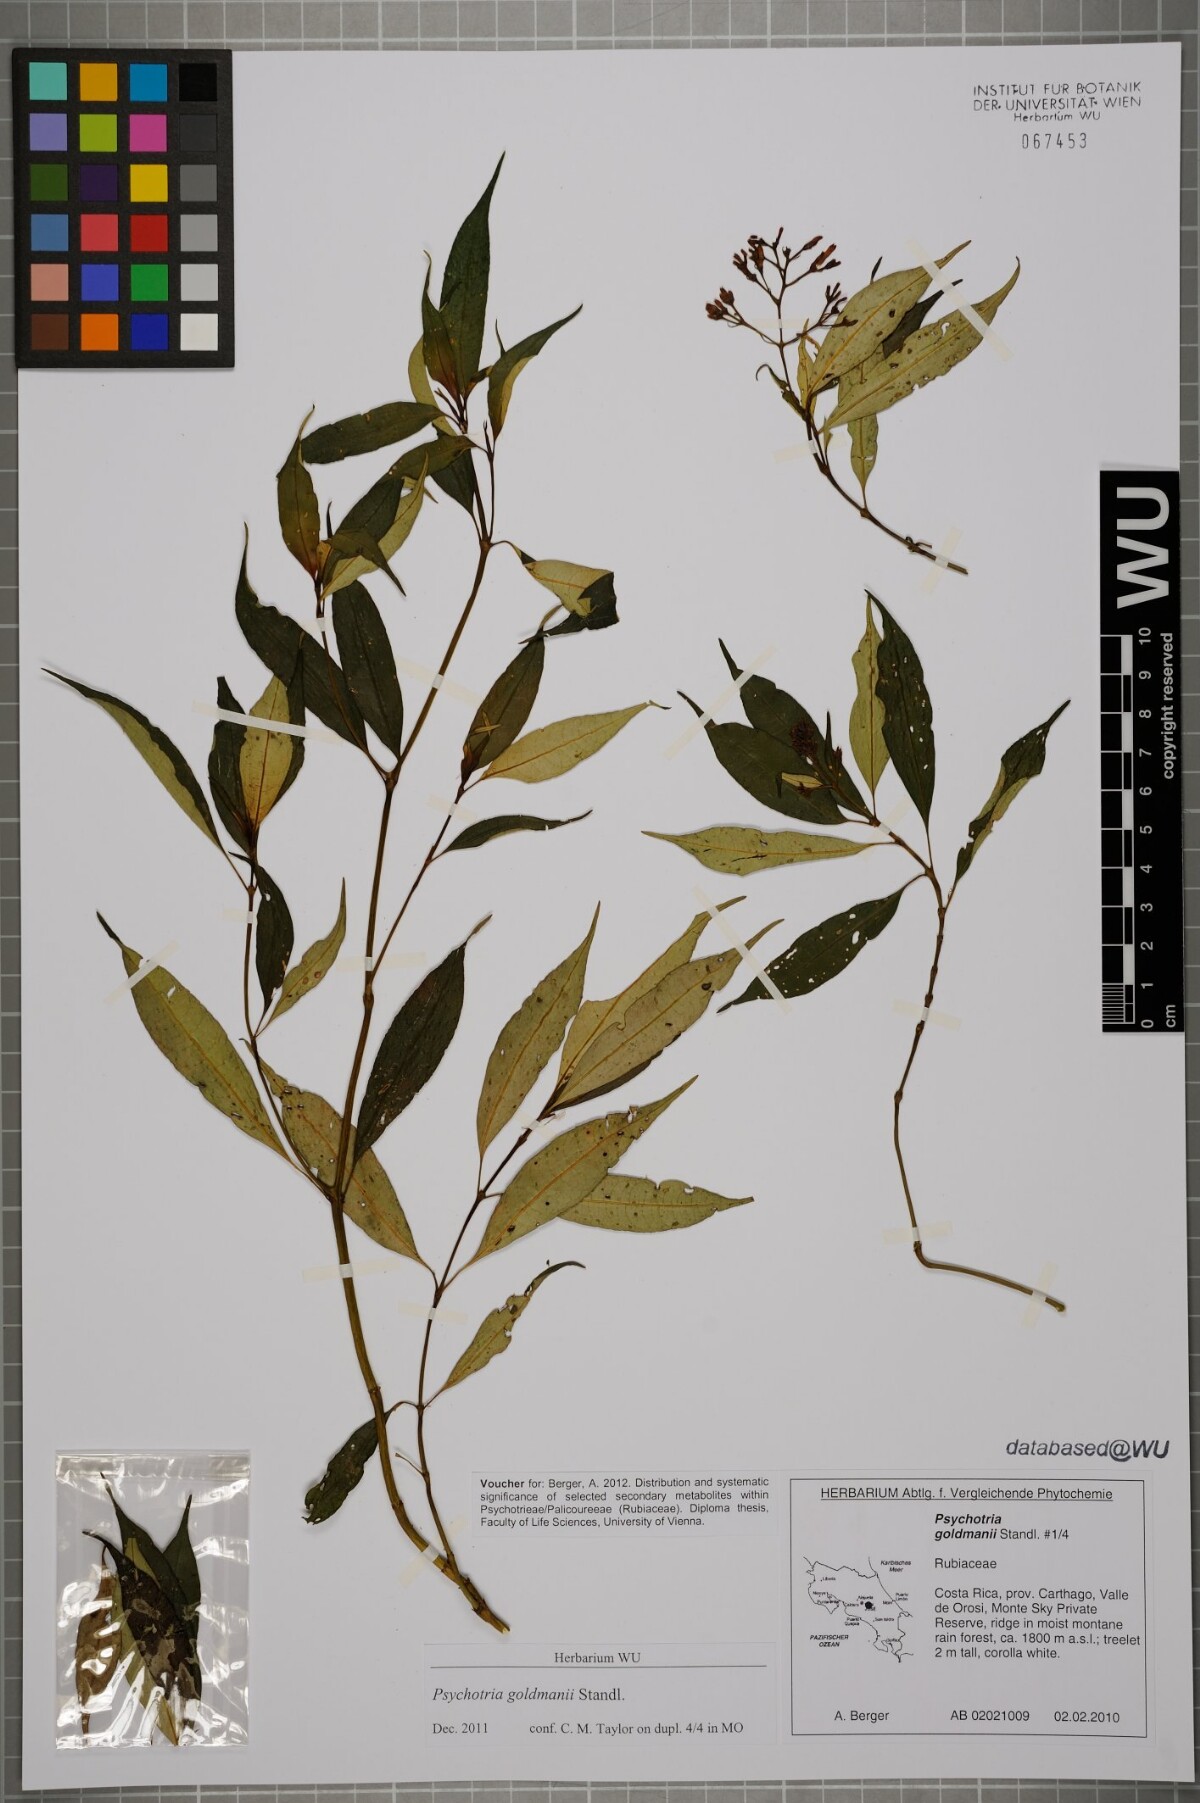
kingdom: Plantae
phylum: Tracheophyta
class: Magnoliopsida
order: Gentianales
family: Rubiaceae
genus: Palicourea
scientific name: Palicourea goldmanii
